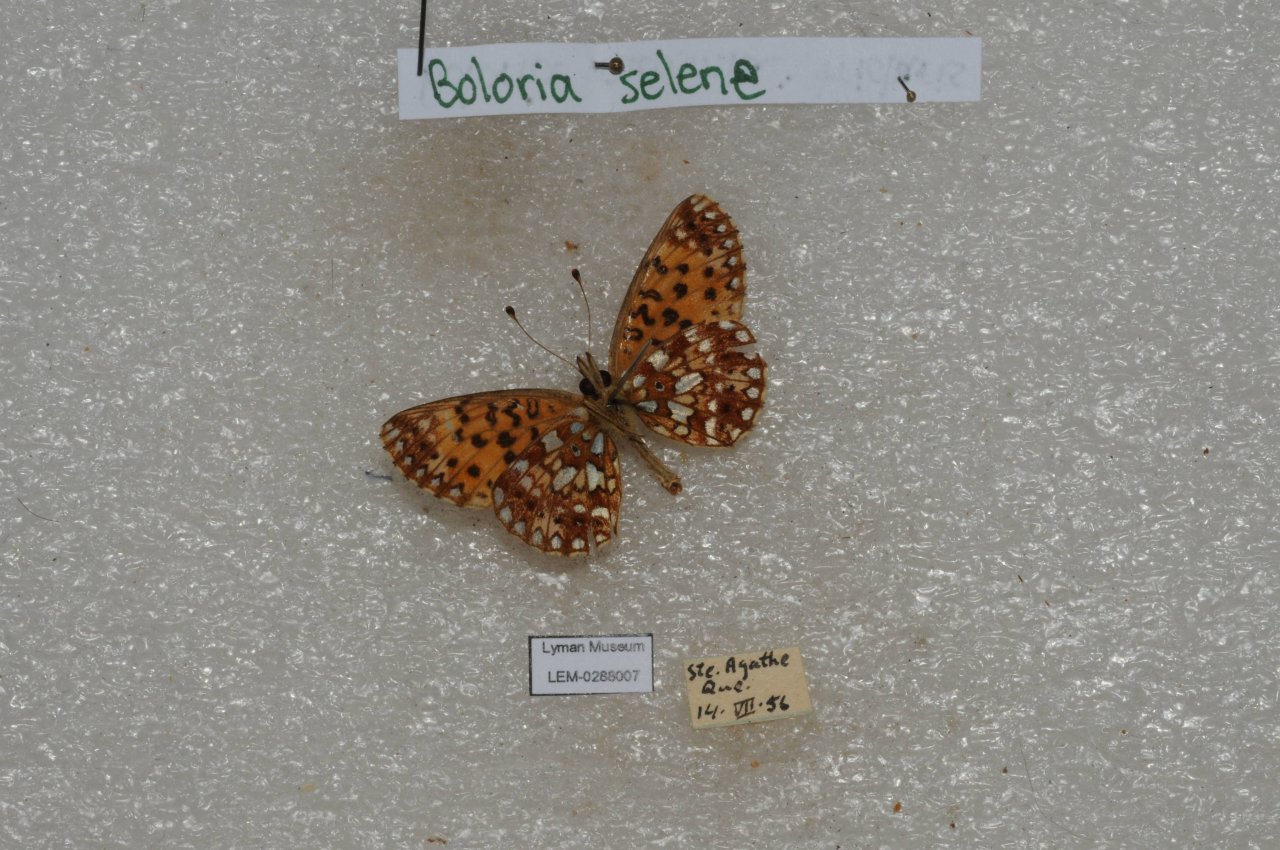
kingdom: Animalia
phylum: Arthropoda
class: Insecta
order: Lepidoptera
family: Nymphalidae
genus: Boloria
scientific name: Boloria selene
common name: Silver-bordered Fritillary
